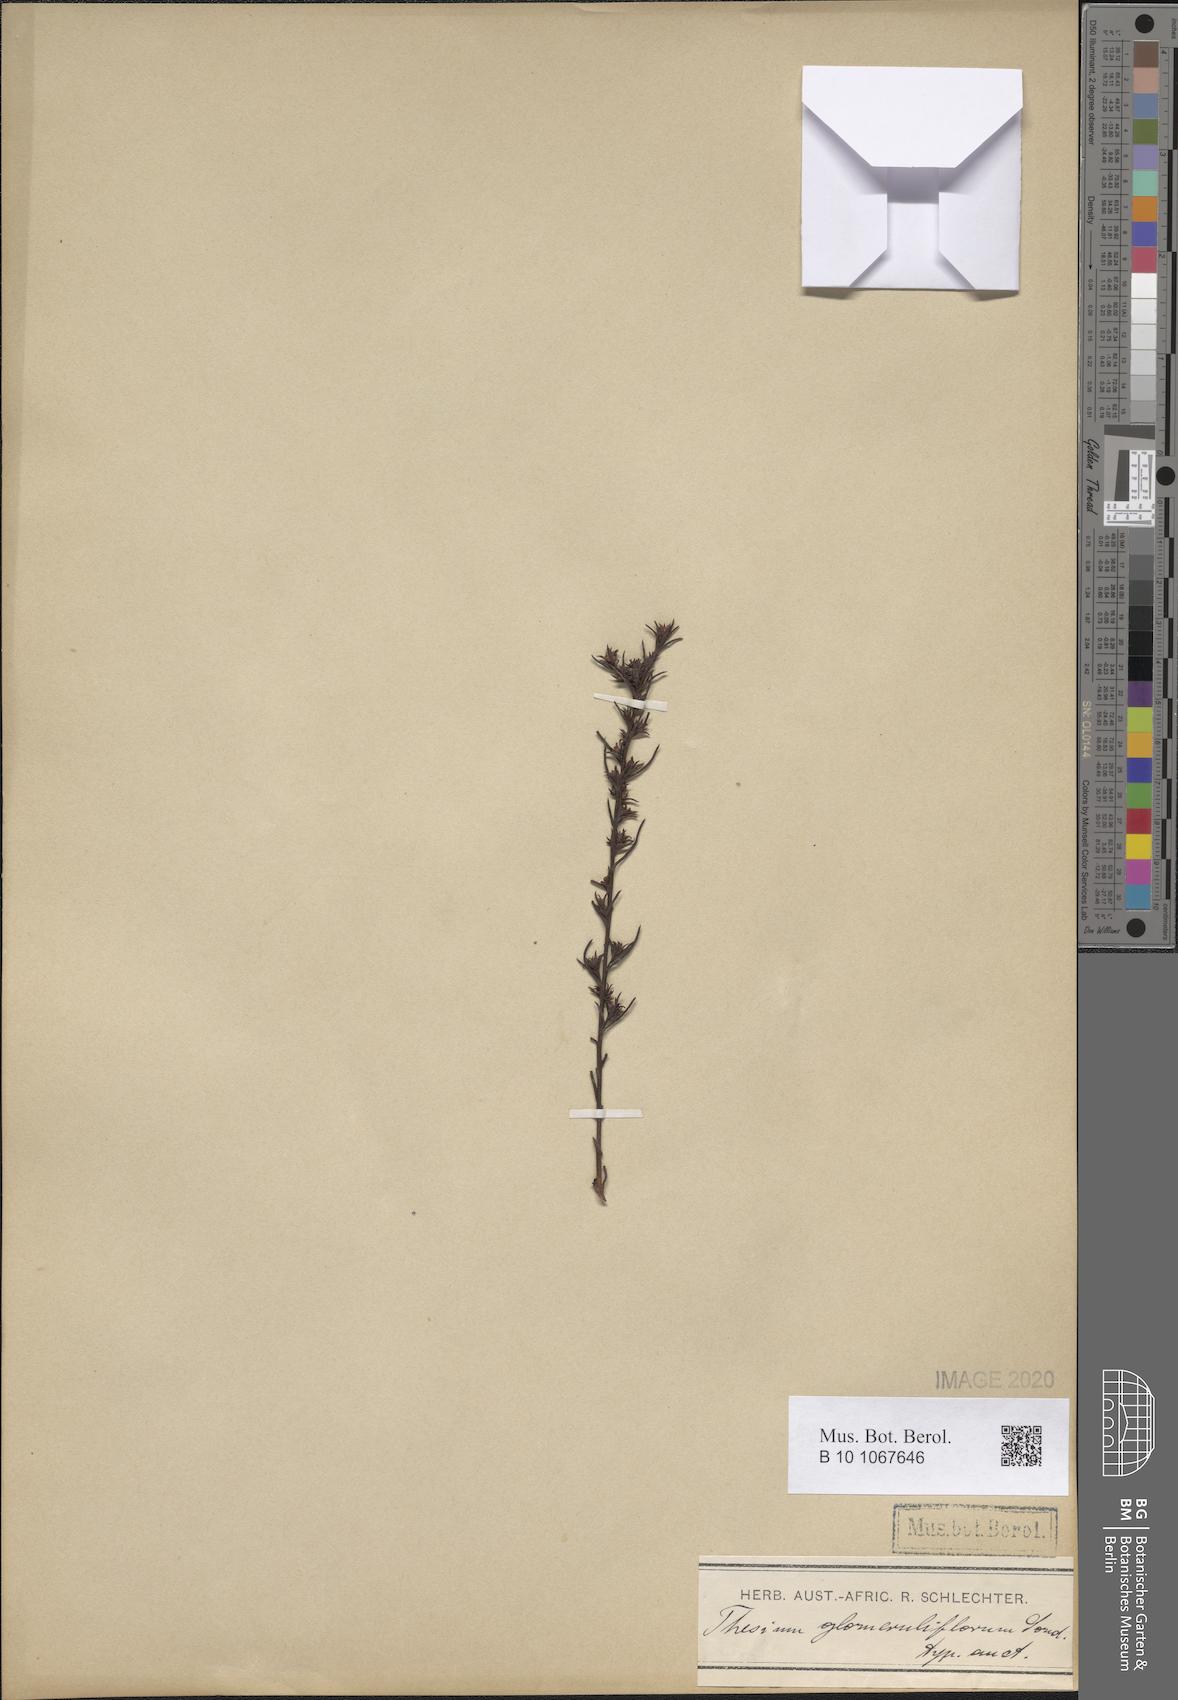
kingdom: Plantae
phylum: Tracheophyta
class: Magnoliopsida
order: Santalales
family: Thesiaceae
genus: Thesium
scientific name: Thesium glomeruliflorum
